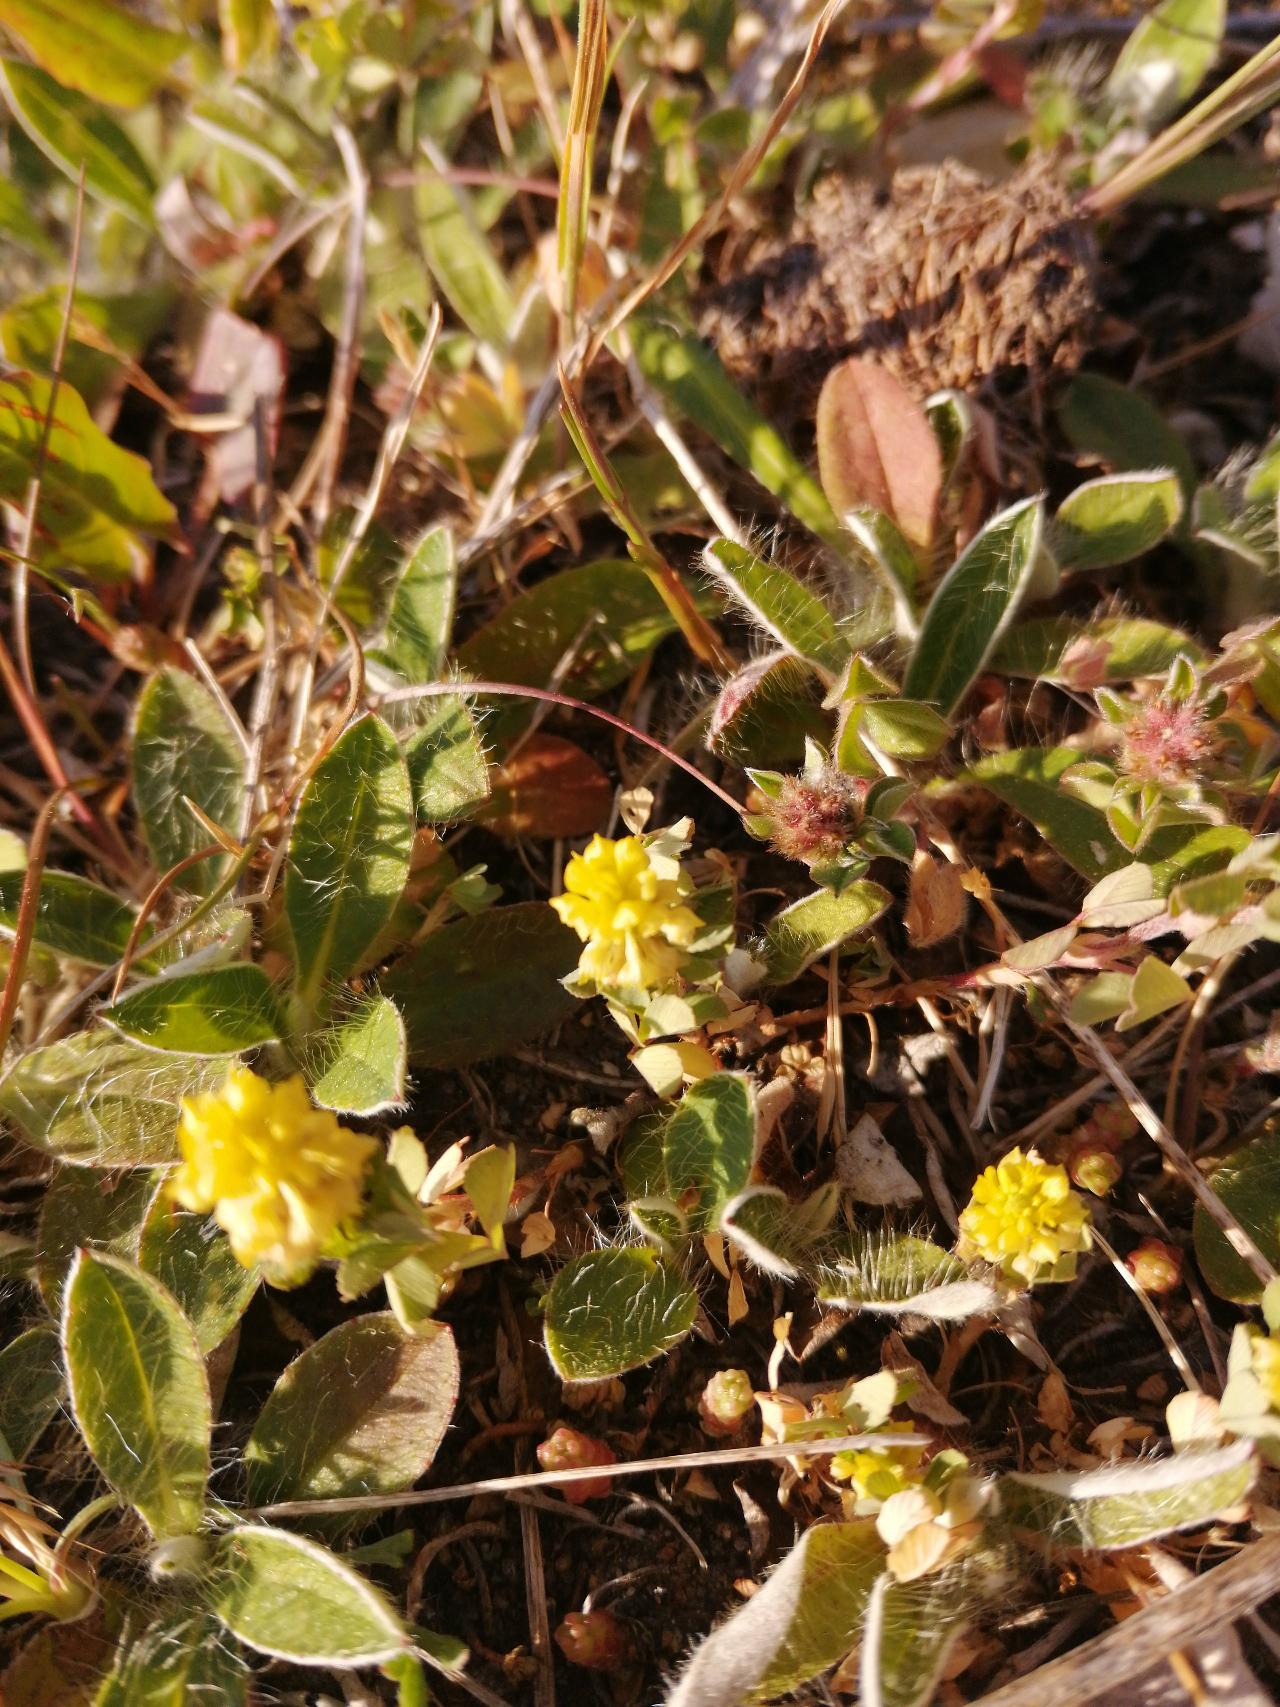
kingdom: Plantae
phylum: Tracheophyta
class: Magnoliopsida
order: Fabales
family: Fabaceae
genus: Trifolium
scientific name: Trifolium campestre
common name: Gul kløver
